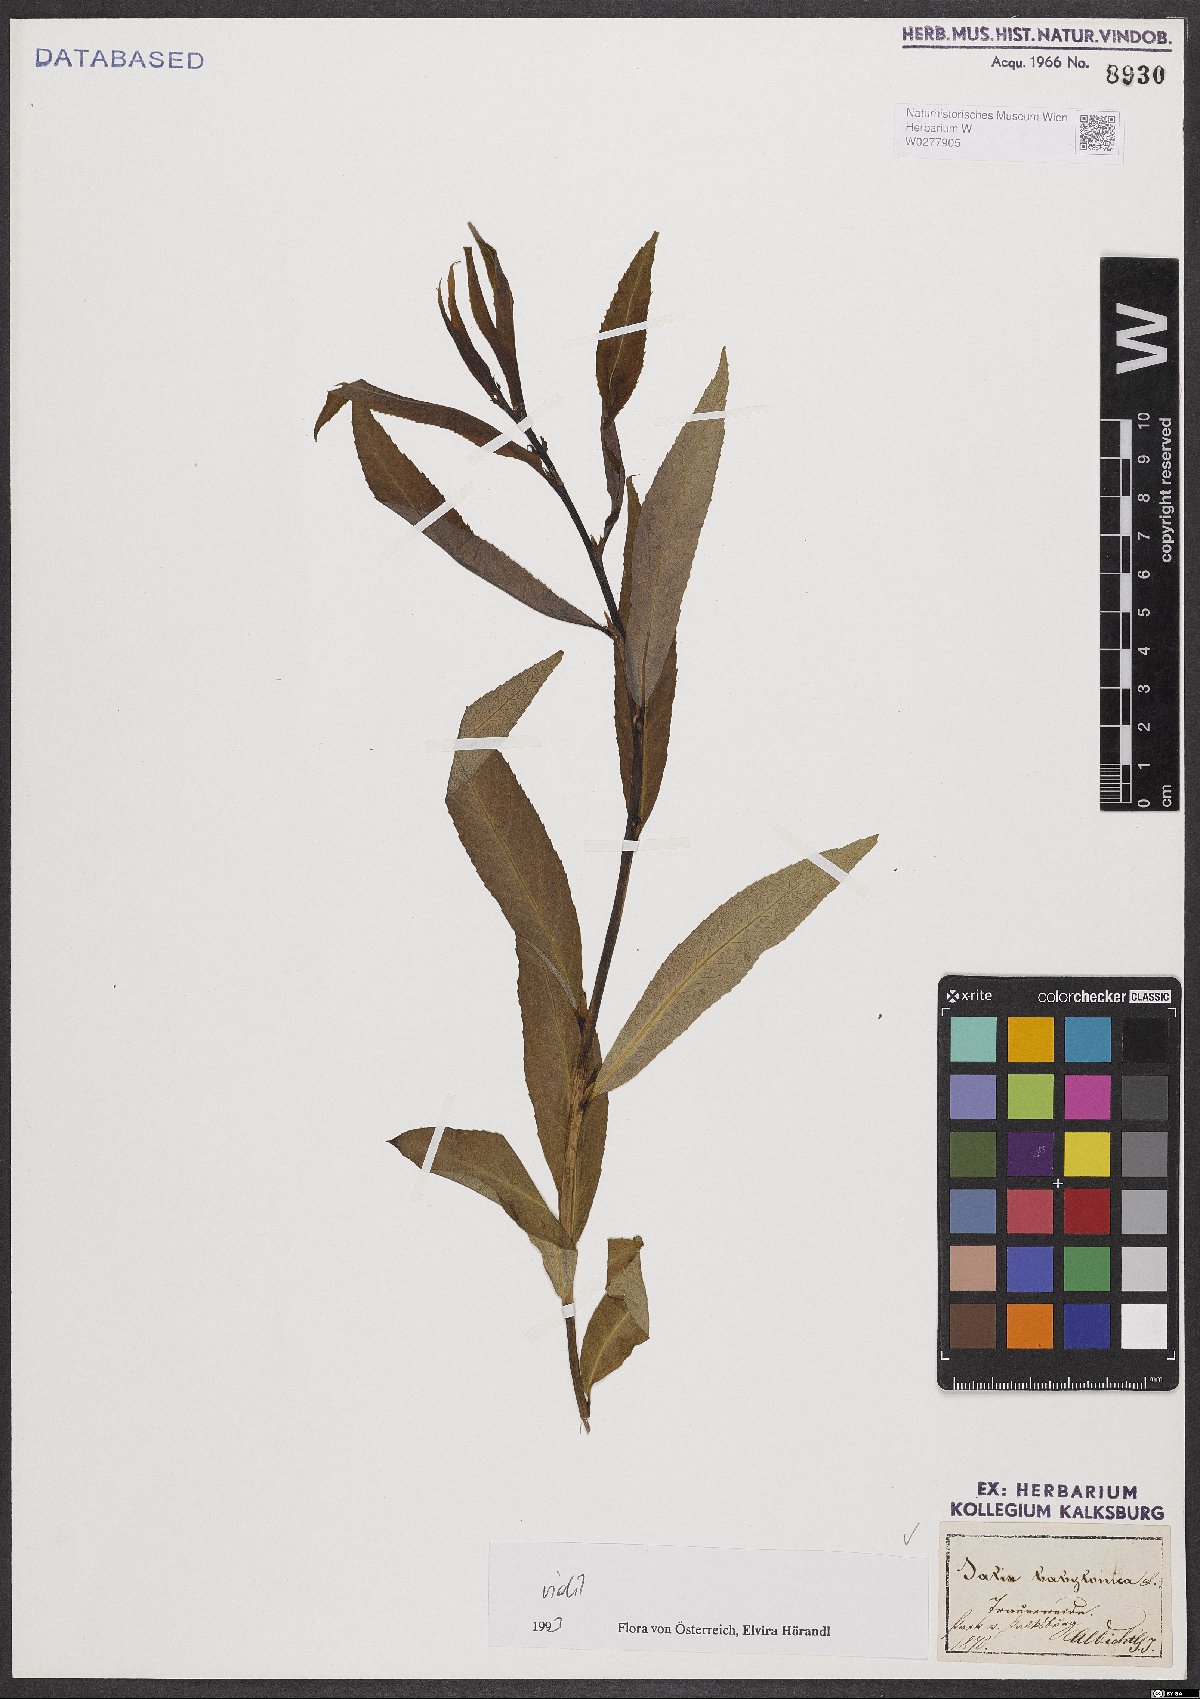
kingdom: Plantae
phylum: Tracheophyta
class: Magnoliopsida
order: Malpighiales
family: Salicaceae
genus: Salix
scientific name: Salix babylonica
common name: Weeping willow
